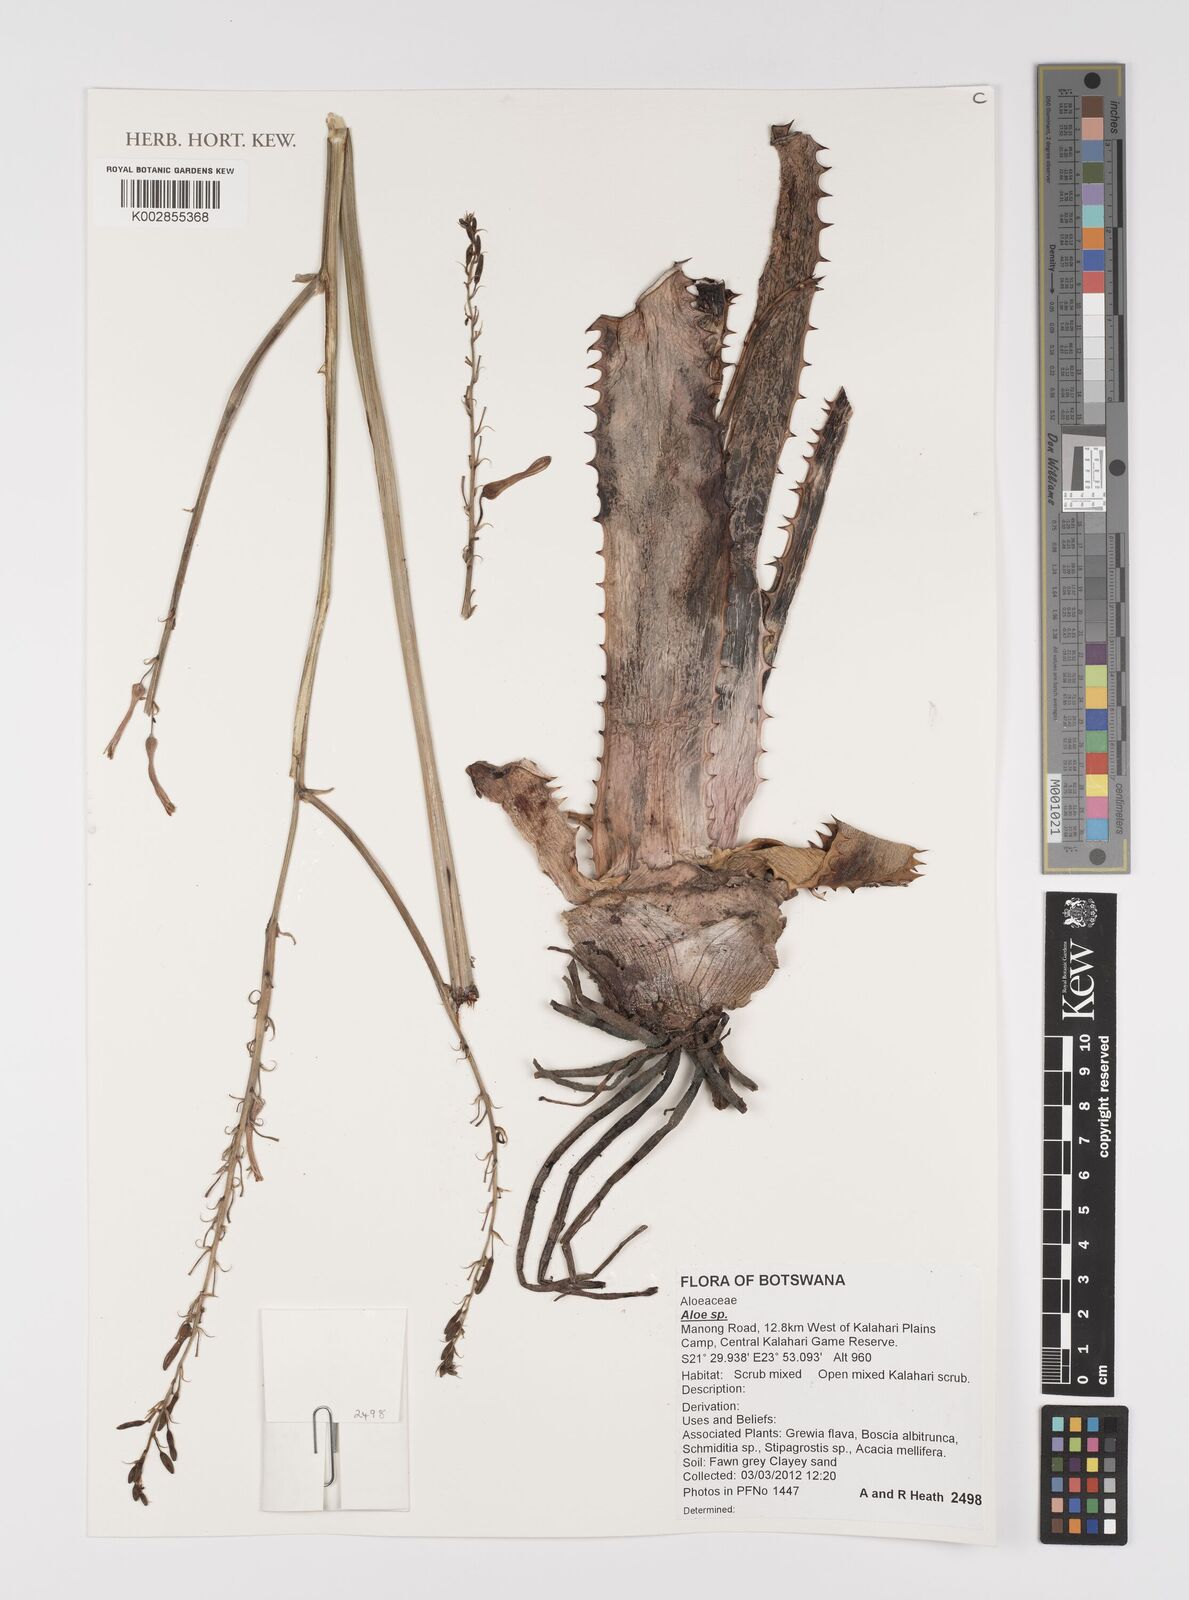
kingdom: Plantae
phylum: Tracheophyta
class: Liliopsida
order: Asparagales
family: Asphodelaceae
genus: Aloe
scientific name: Aloe
